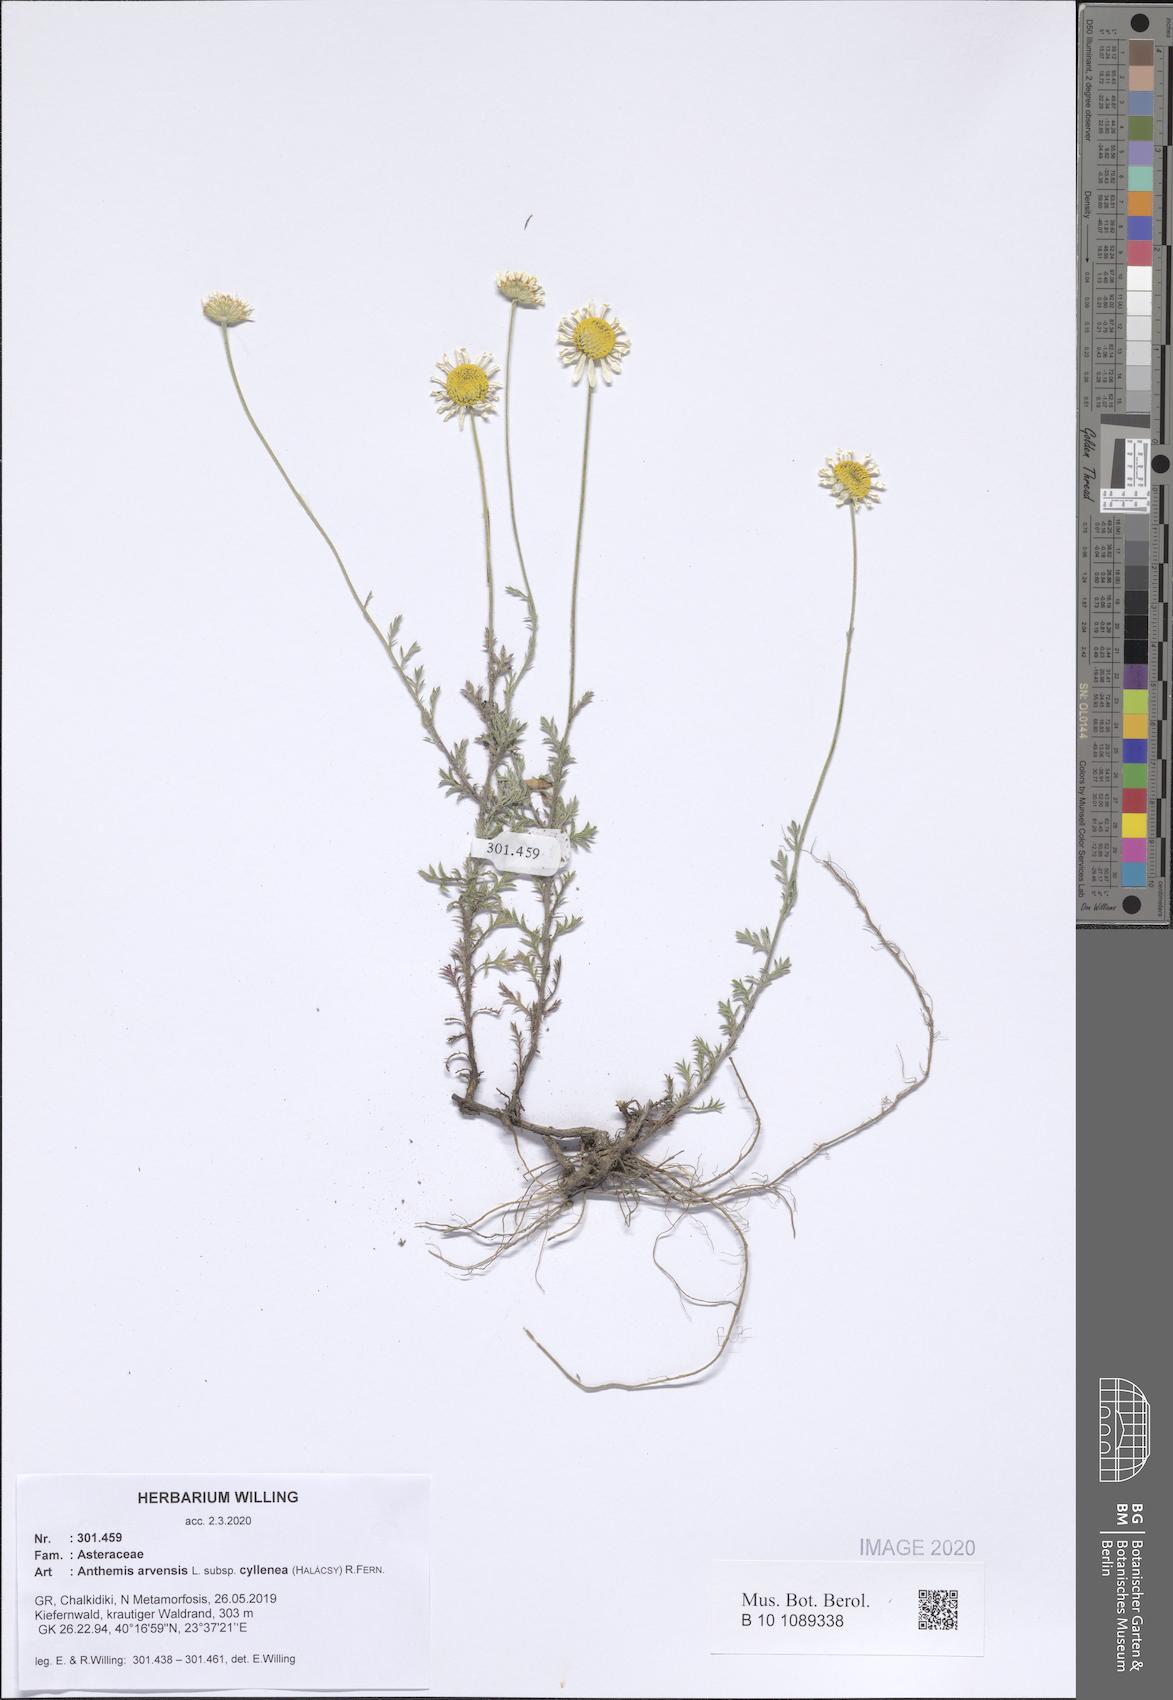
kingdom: Plantae
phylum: Tracheophyta
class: Magnoliopsida
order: Asterales
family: Asteraceae
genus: Anthemis
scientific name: Anthemis arvensis
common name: Corn chamomile
